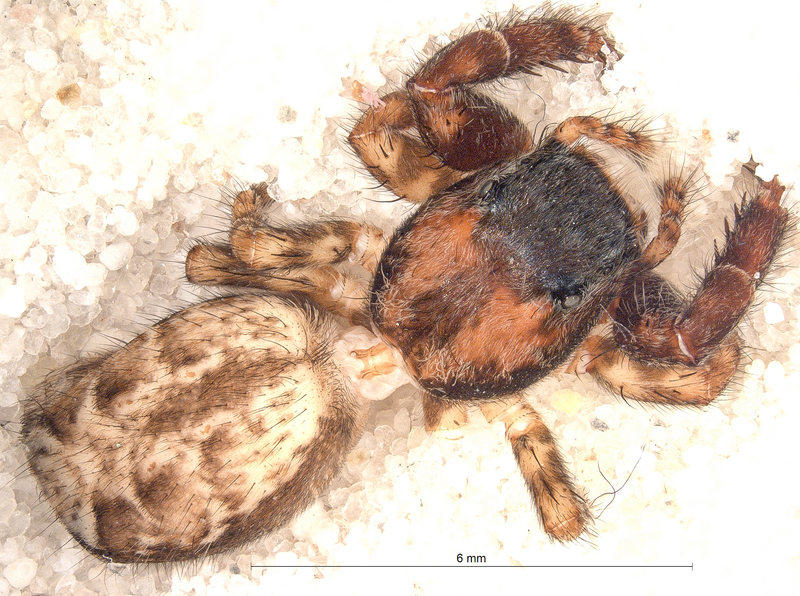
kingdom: Animalia
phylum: Arthropoda
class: Arachnida
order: Araneae
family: Salticidae
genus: Marpissa
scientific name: Marpissa muscosa
